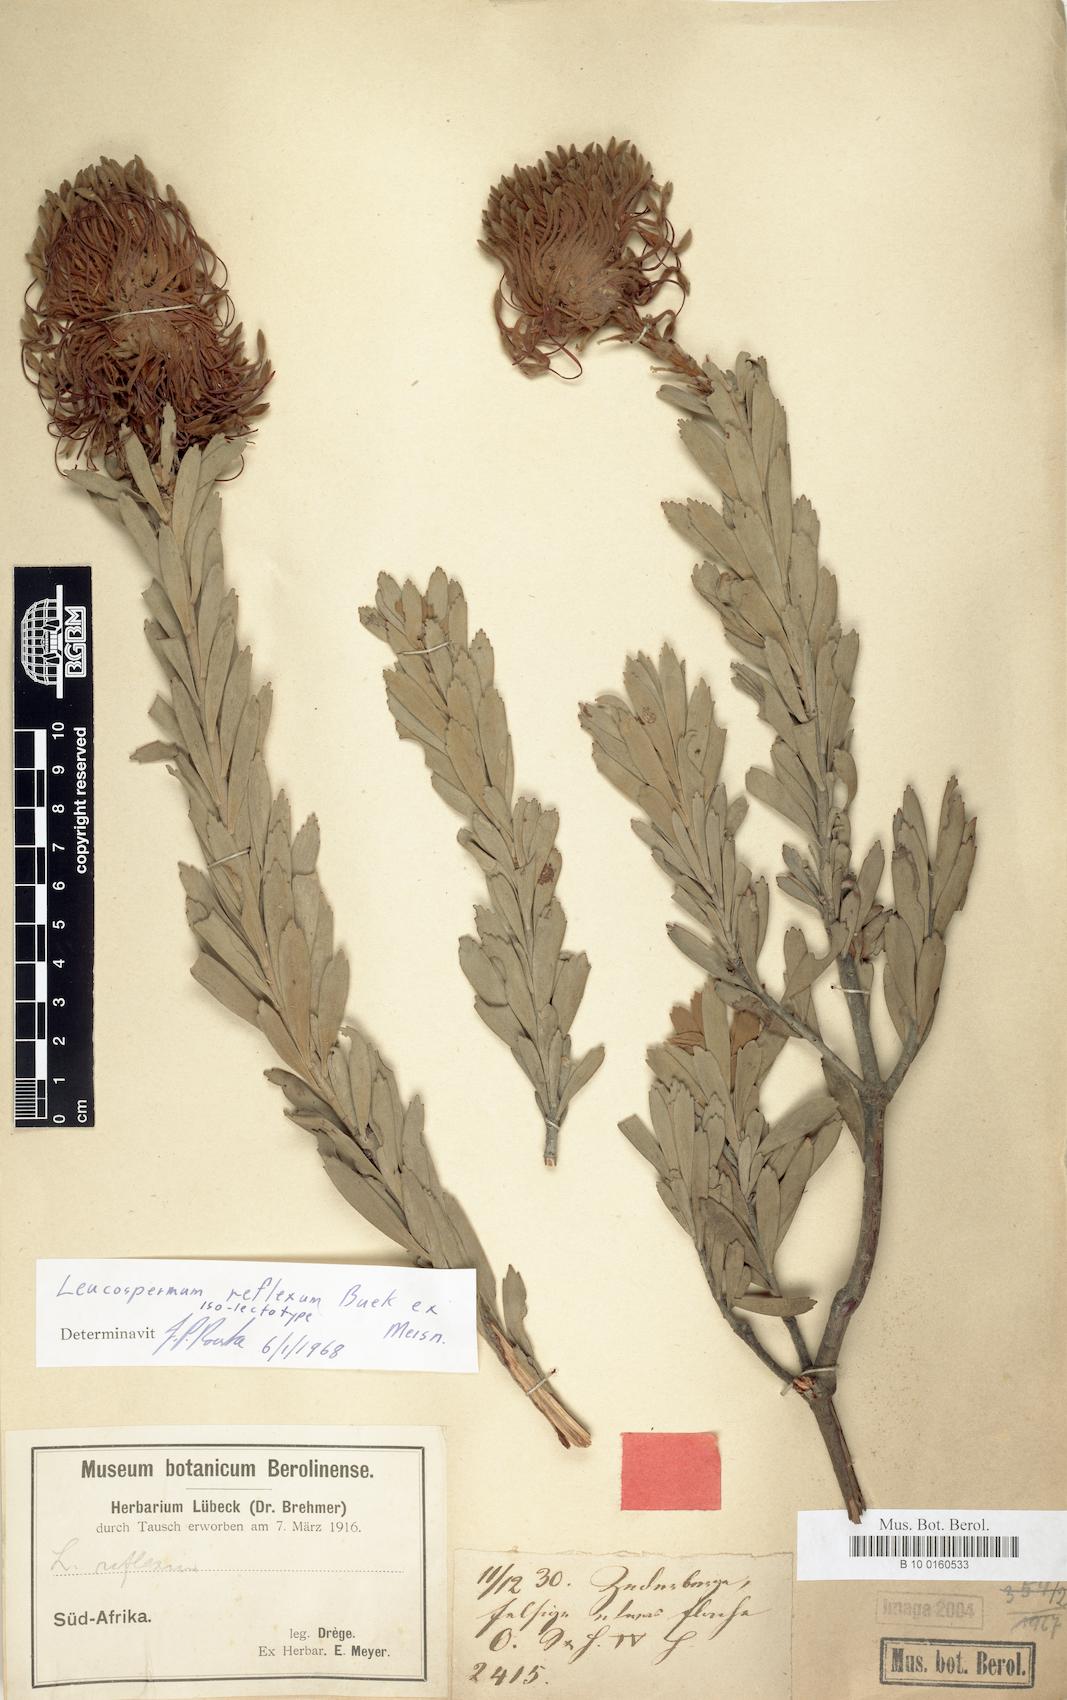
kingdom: Plantae
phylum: Tracheophyta
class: Magnoliopsida
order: Proteales
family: Proteaceae
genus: Leucospermum
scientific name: Leucospermum reflexum
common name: Rocket pincushion
